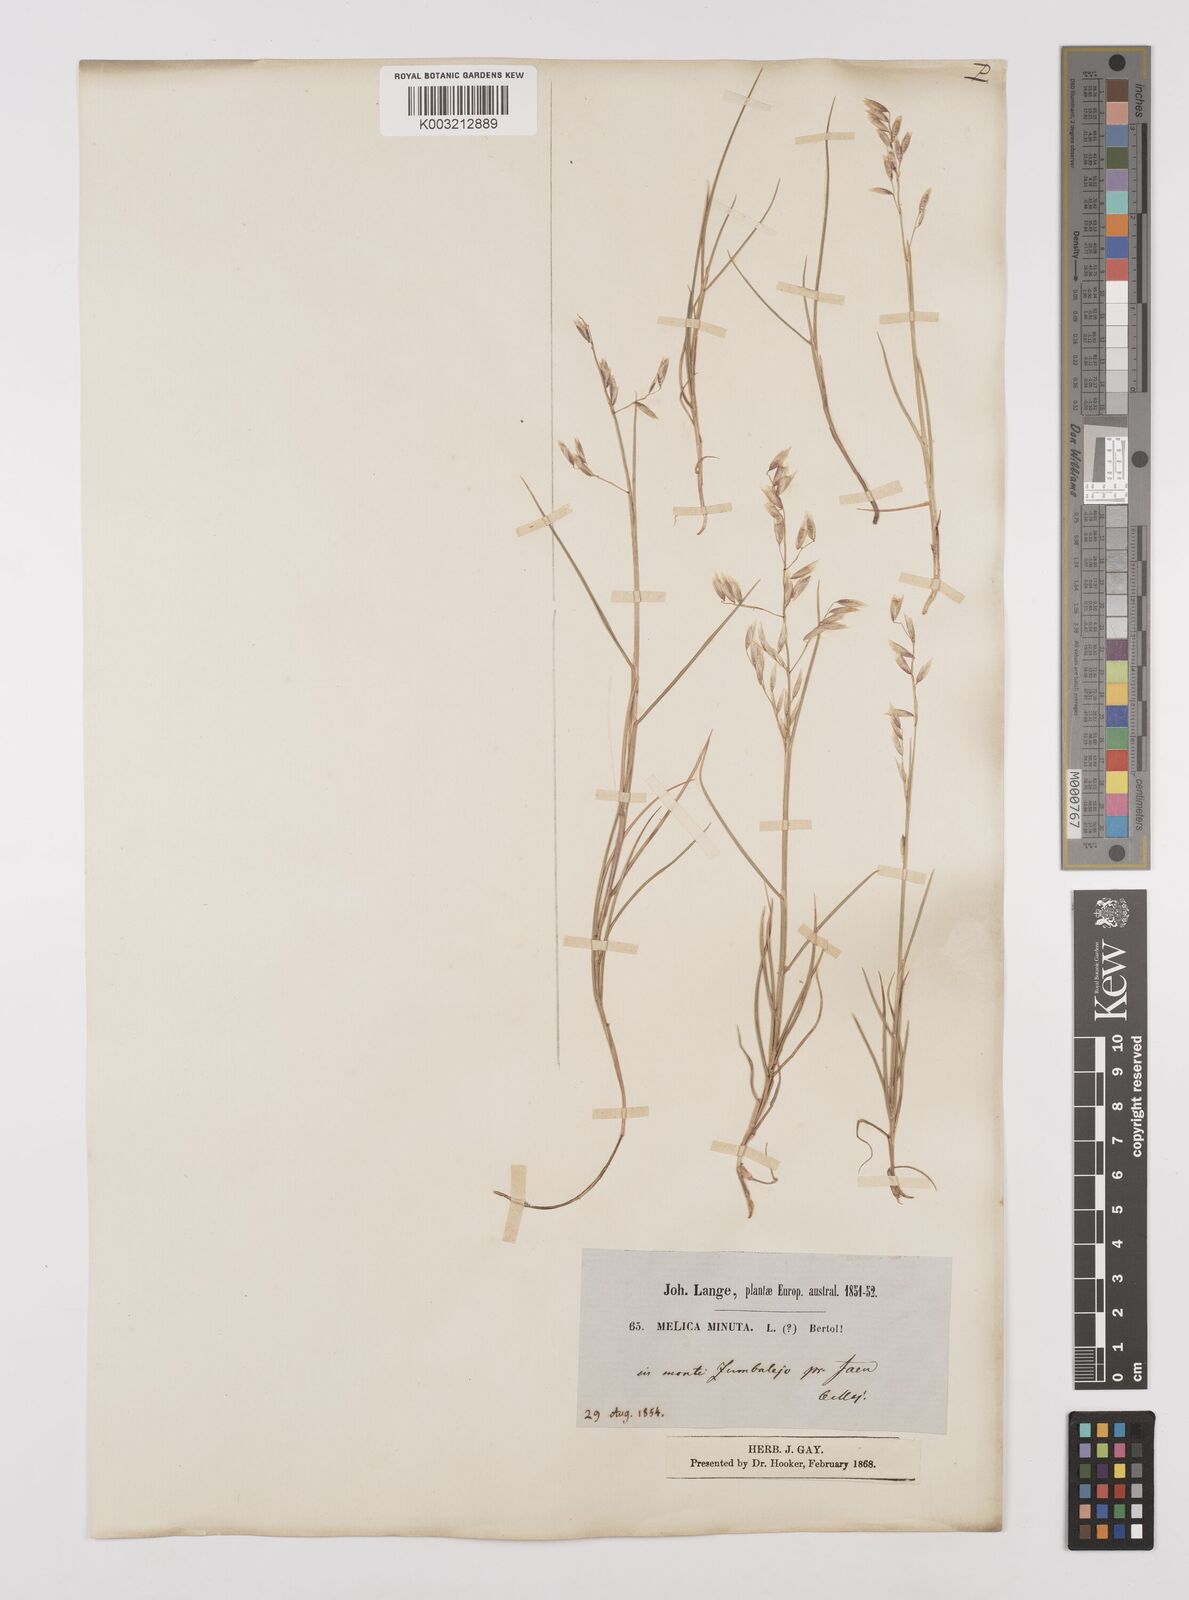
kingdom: Plantae
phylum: Tracheophyta
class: Liliopsida
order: Poales
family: Poaceae
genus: Melica
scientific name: Melica minuta
